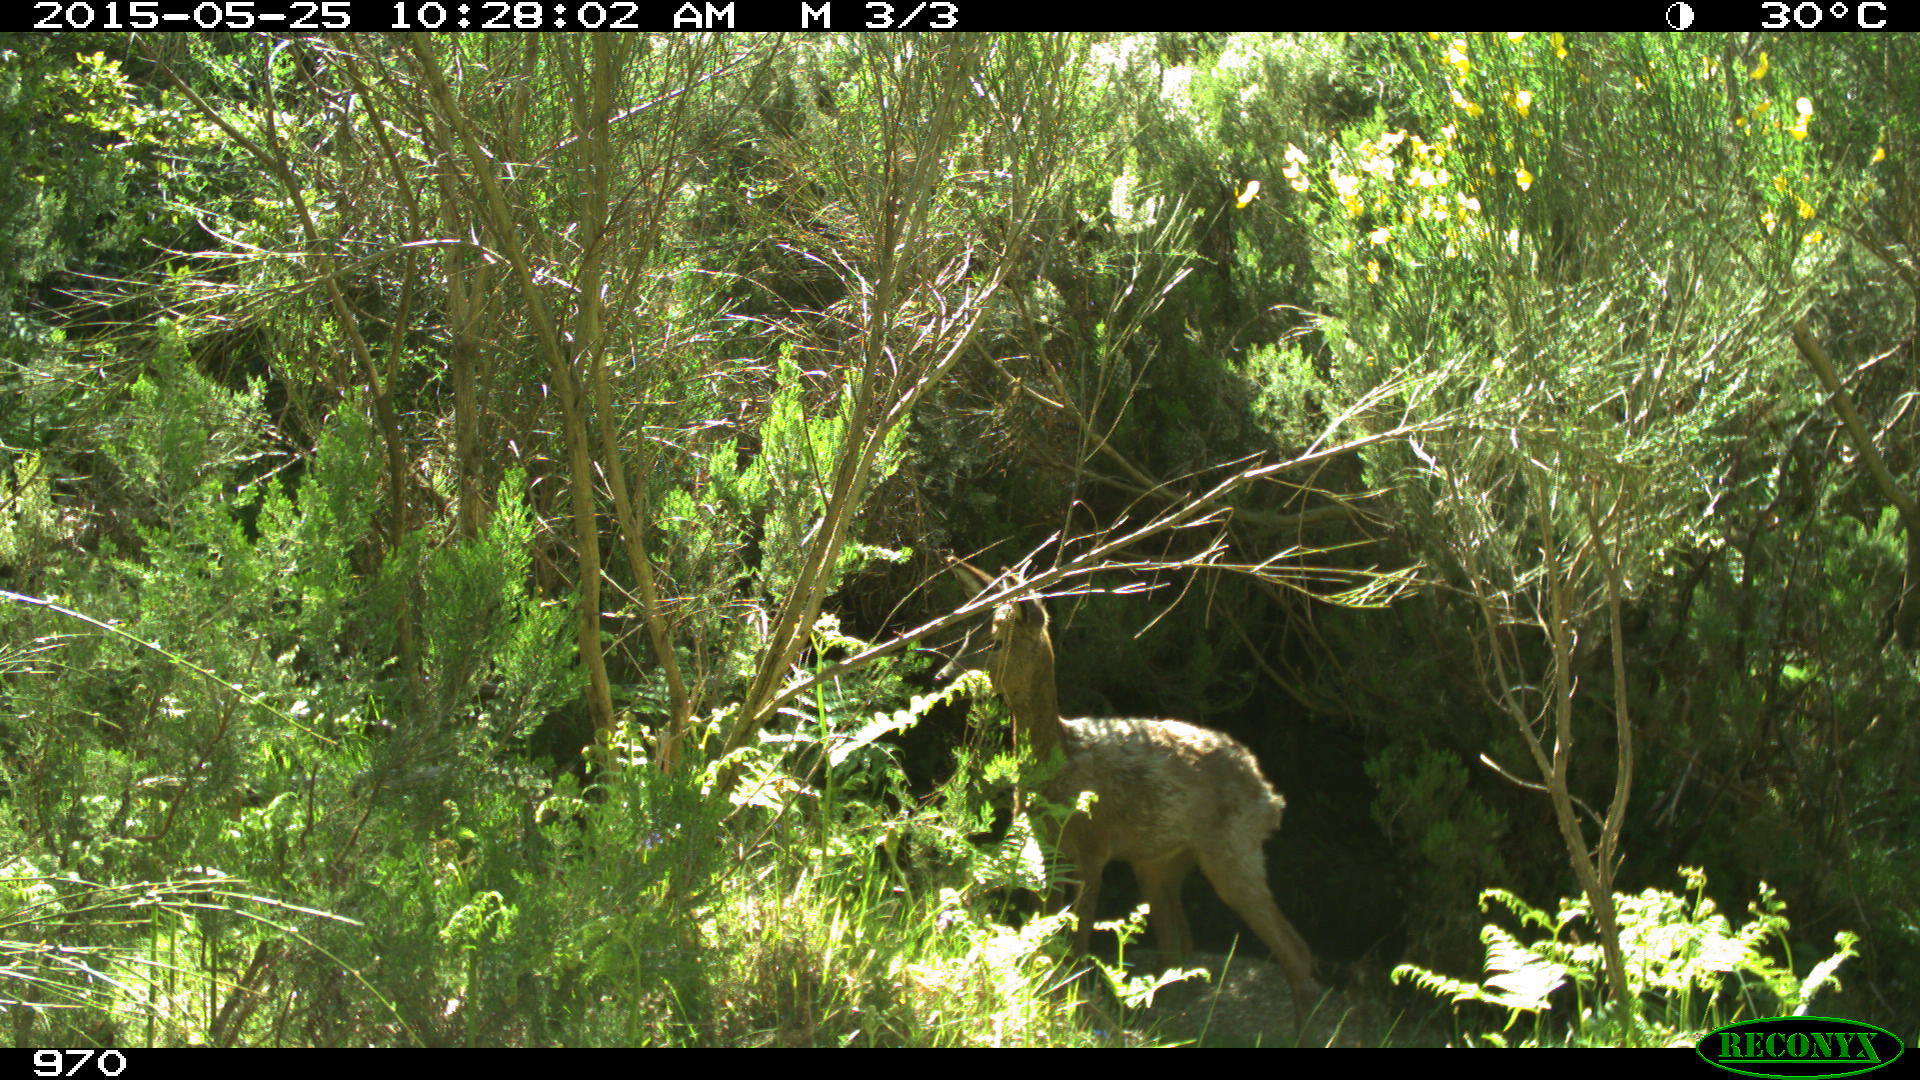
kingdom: Animalia
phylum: Chordata
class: Mammalia
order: Artiodactyla
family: Cervidae
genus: Capreolus
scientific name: Capreolus capreolus
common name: Western roe deer
